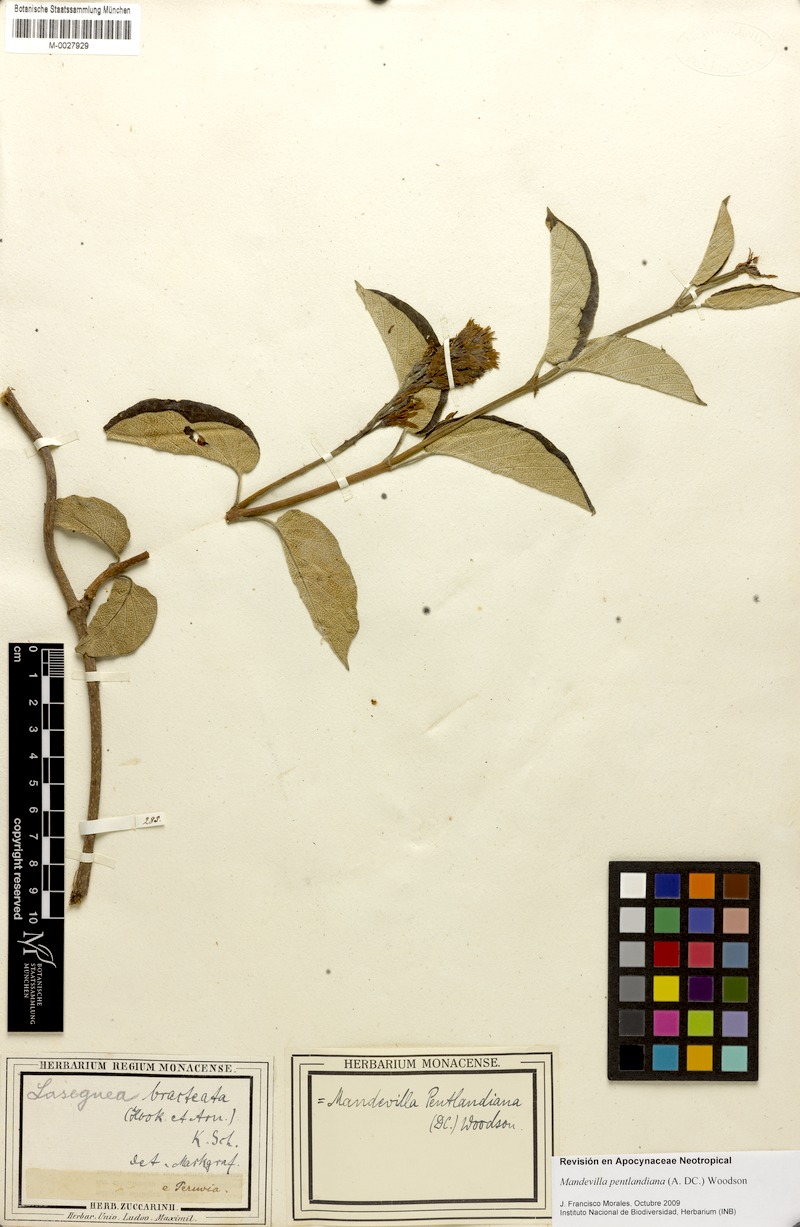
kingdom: Plantae
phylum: Tracheophyta
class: Magnoliopsida
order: Gentianales
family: Apocynaceae
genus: Mandevilla
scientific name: Mandevilla pentlandiana
